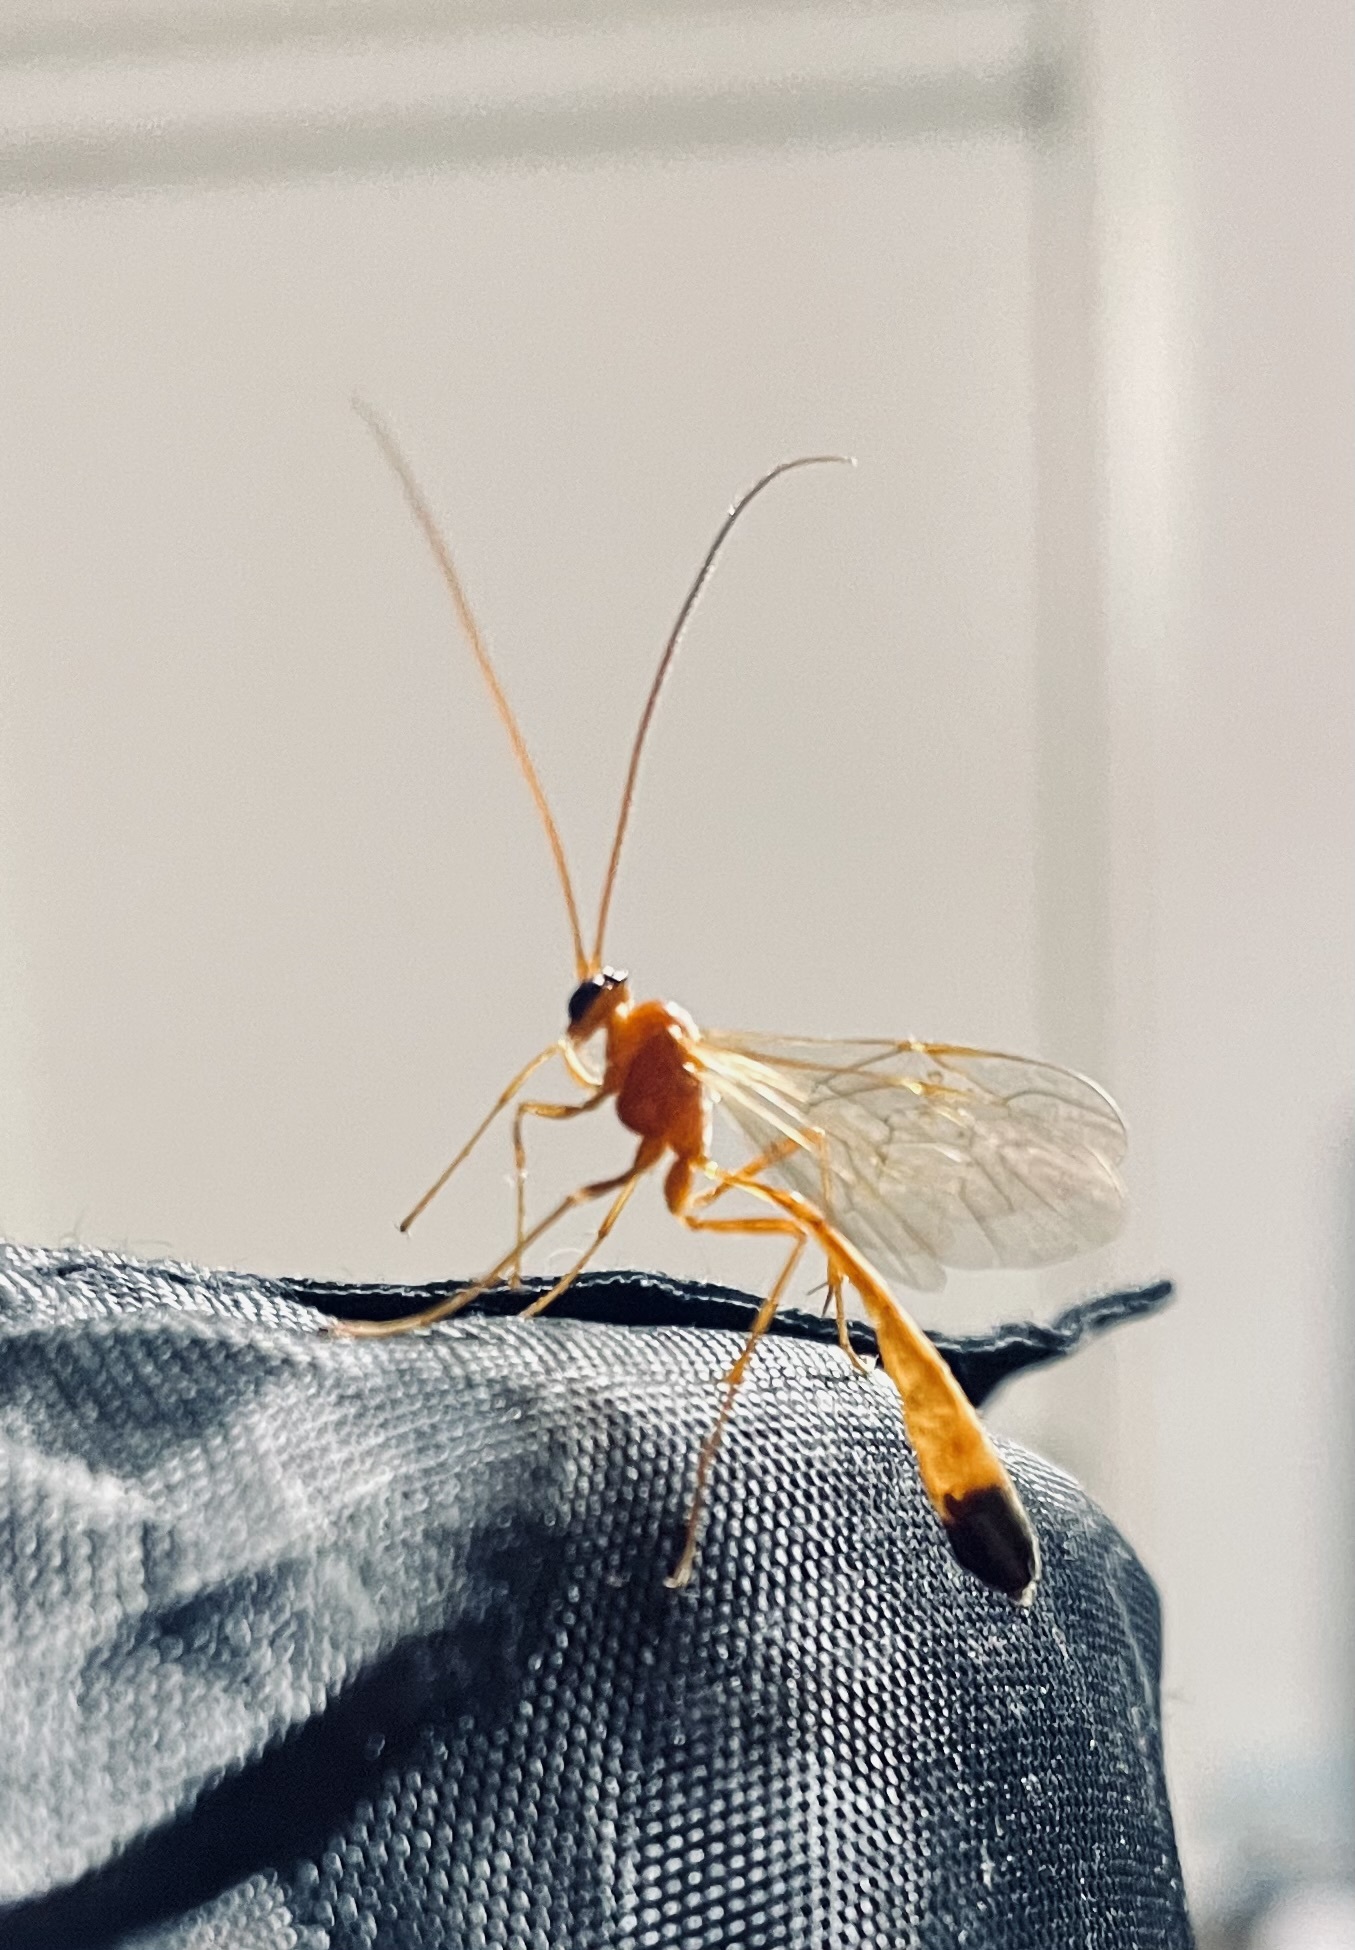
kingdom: Animalia
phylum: Arthropoda
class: Insecta
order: Hymenoptera
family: Ichneumonidae
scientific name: Ichneumonidae
